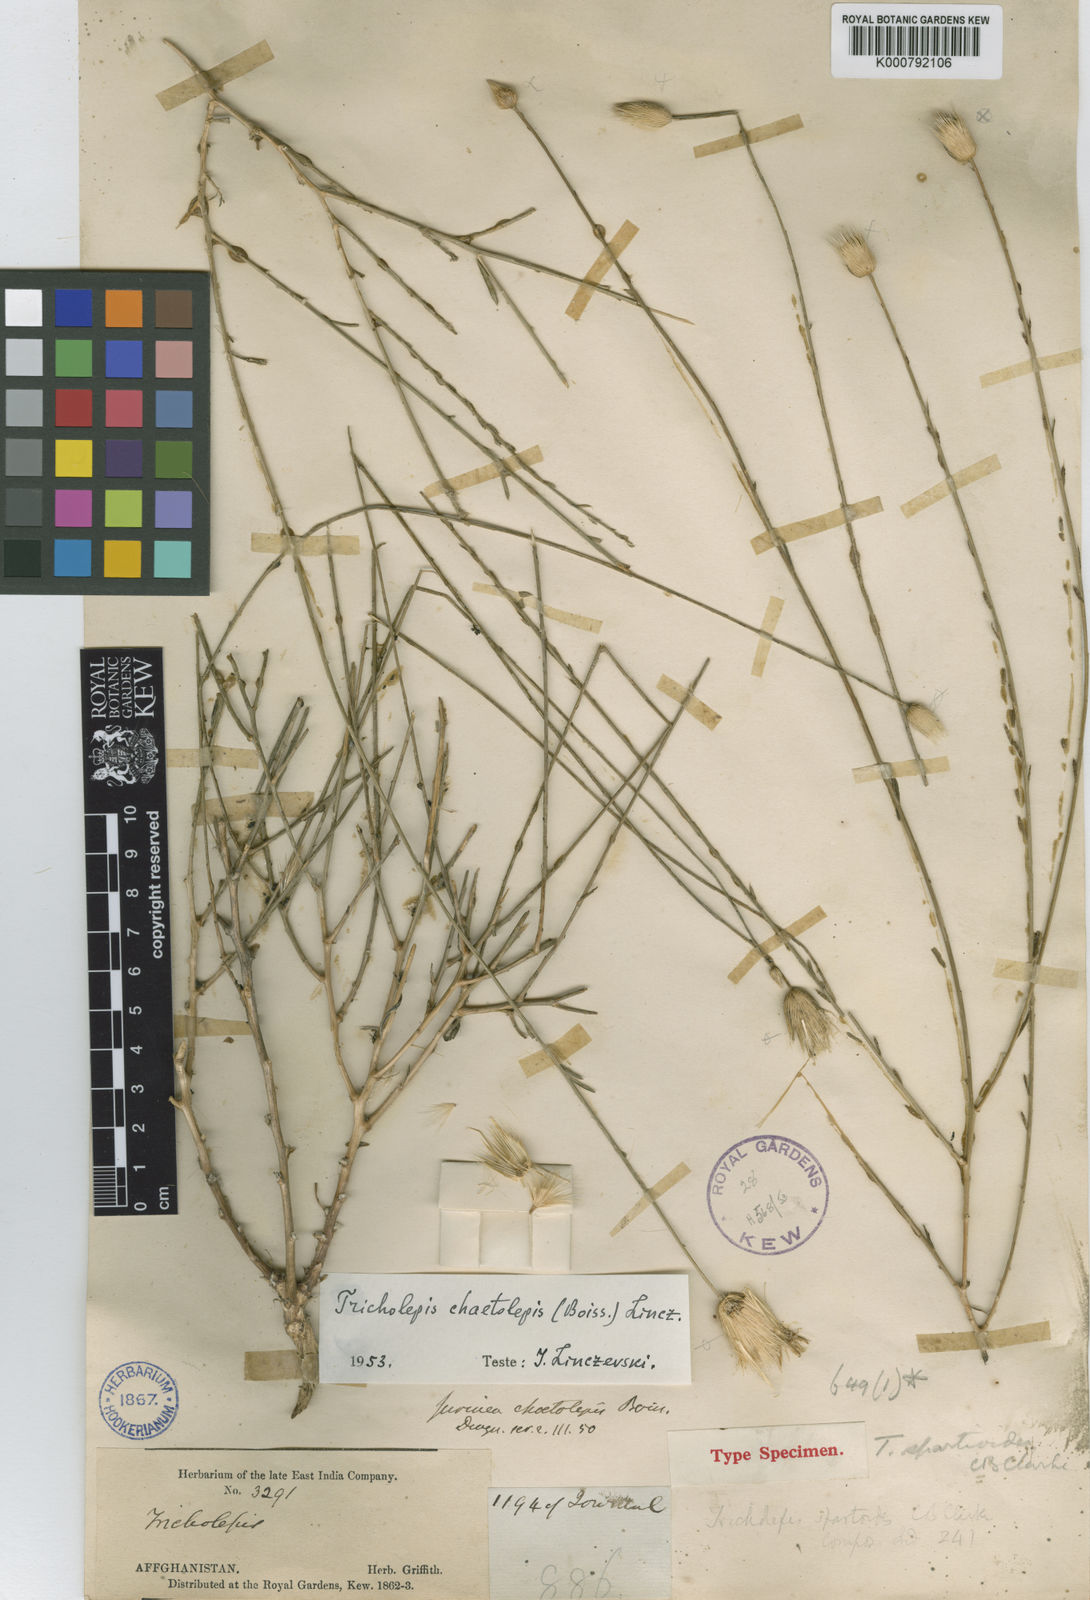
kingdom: Plantae
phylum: Tracheophyta
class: Magnoliopsida
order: Asterales
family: Asteraceae
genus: Tricholepis
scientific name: Tricholepis chaetolepis
